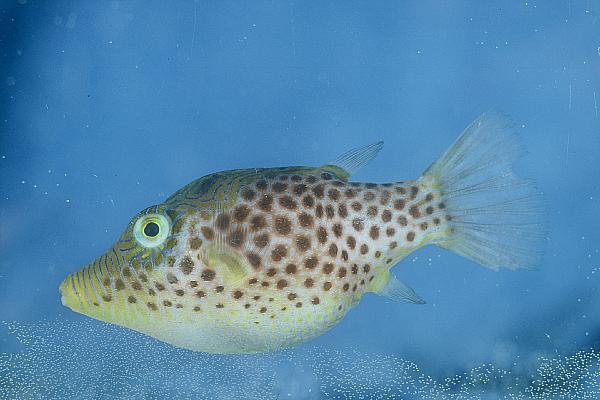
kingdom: Animalia
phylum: Chordata
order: Tetraodontiformes
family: Tetraodontidae
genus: Canthigaster
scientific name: Canthigaster tyleri
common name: Tyler's toby
